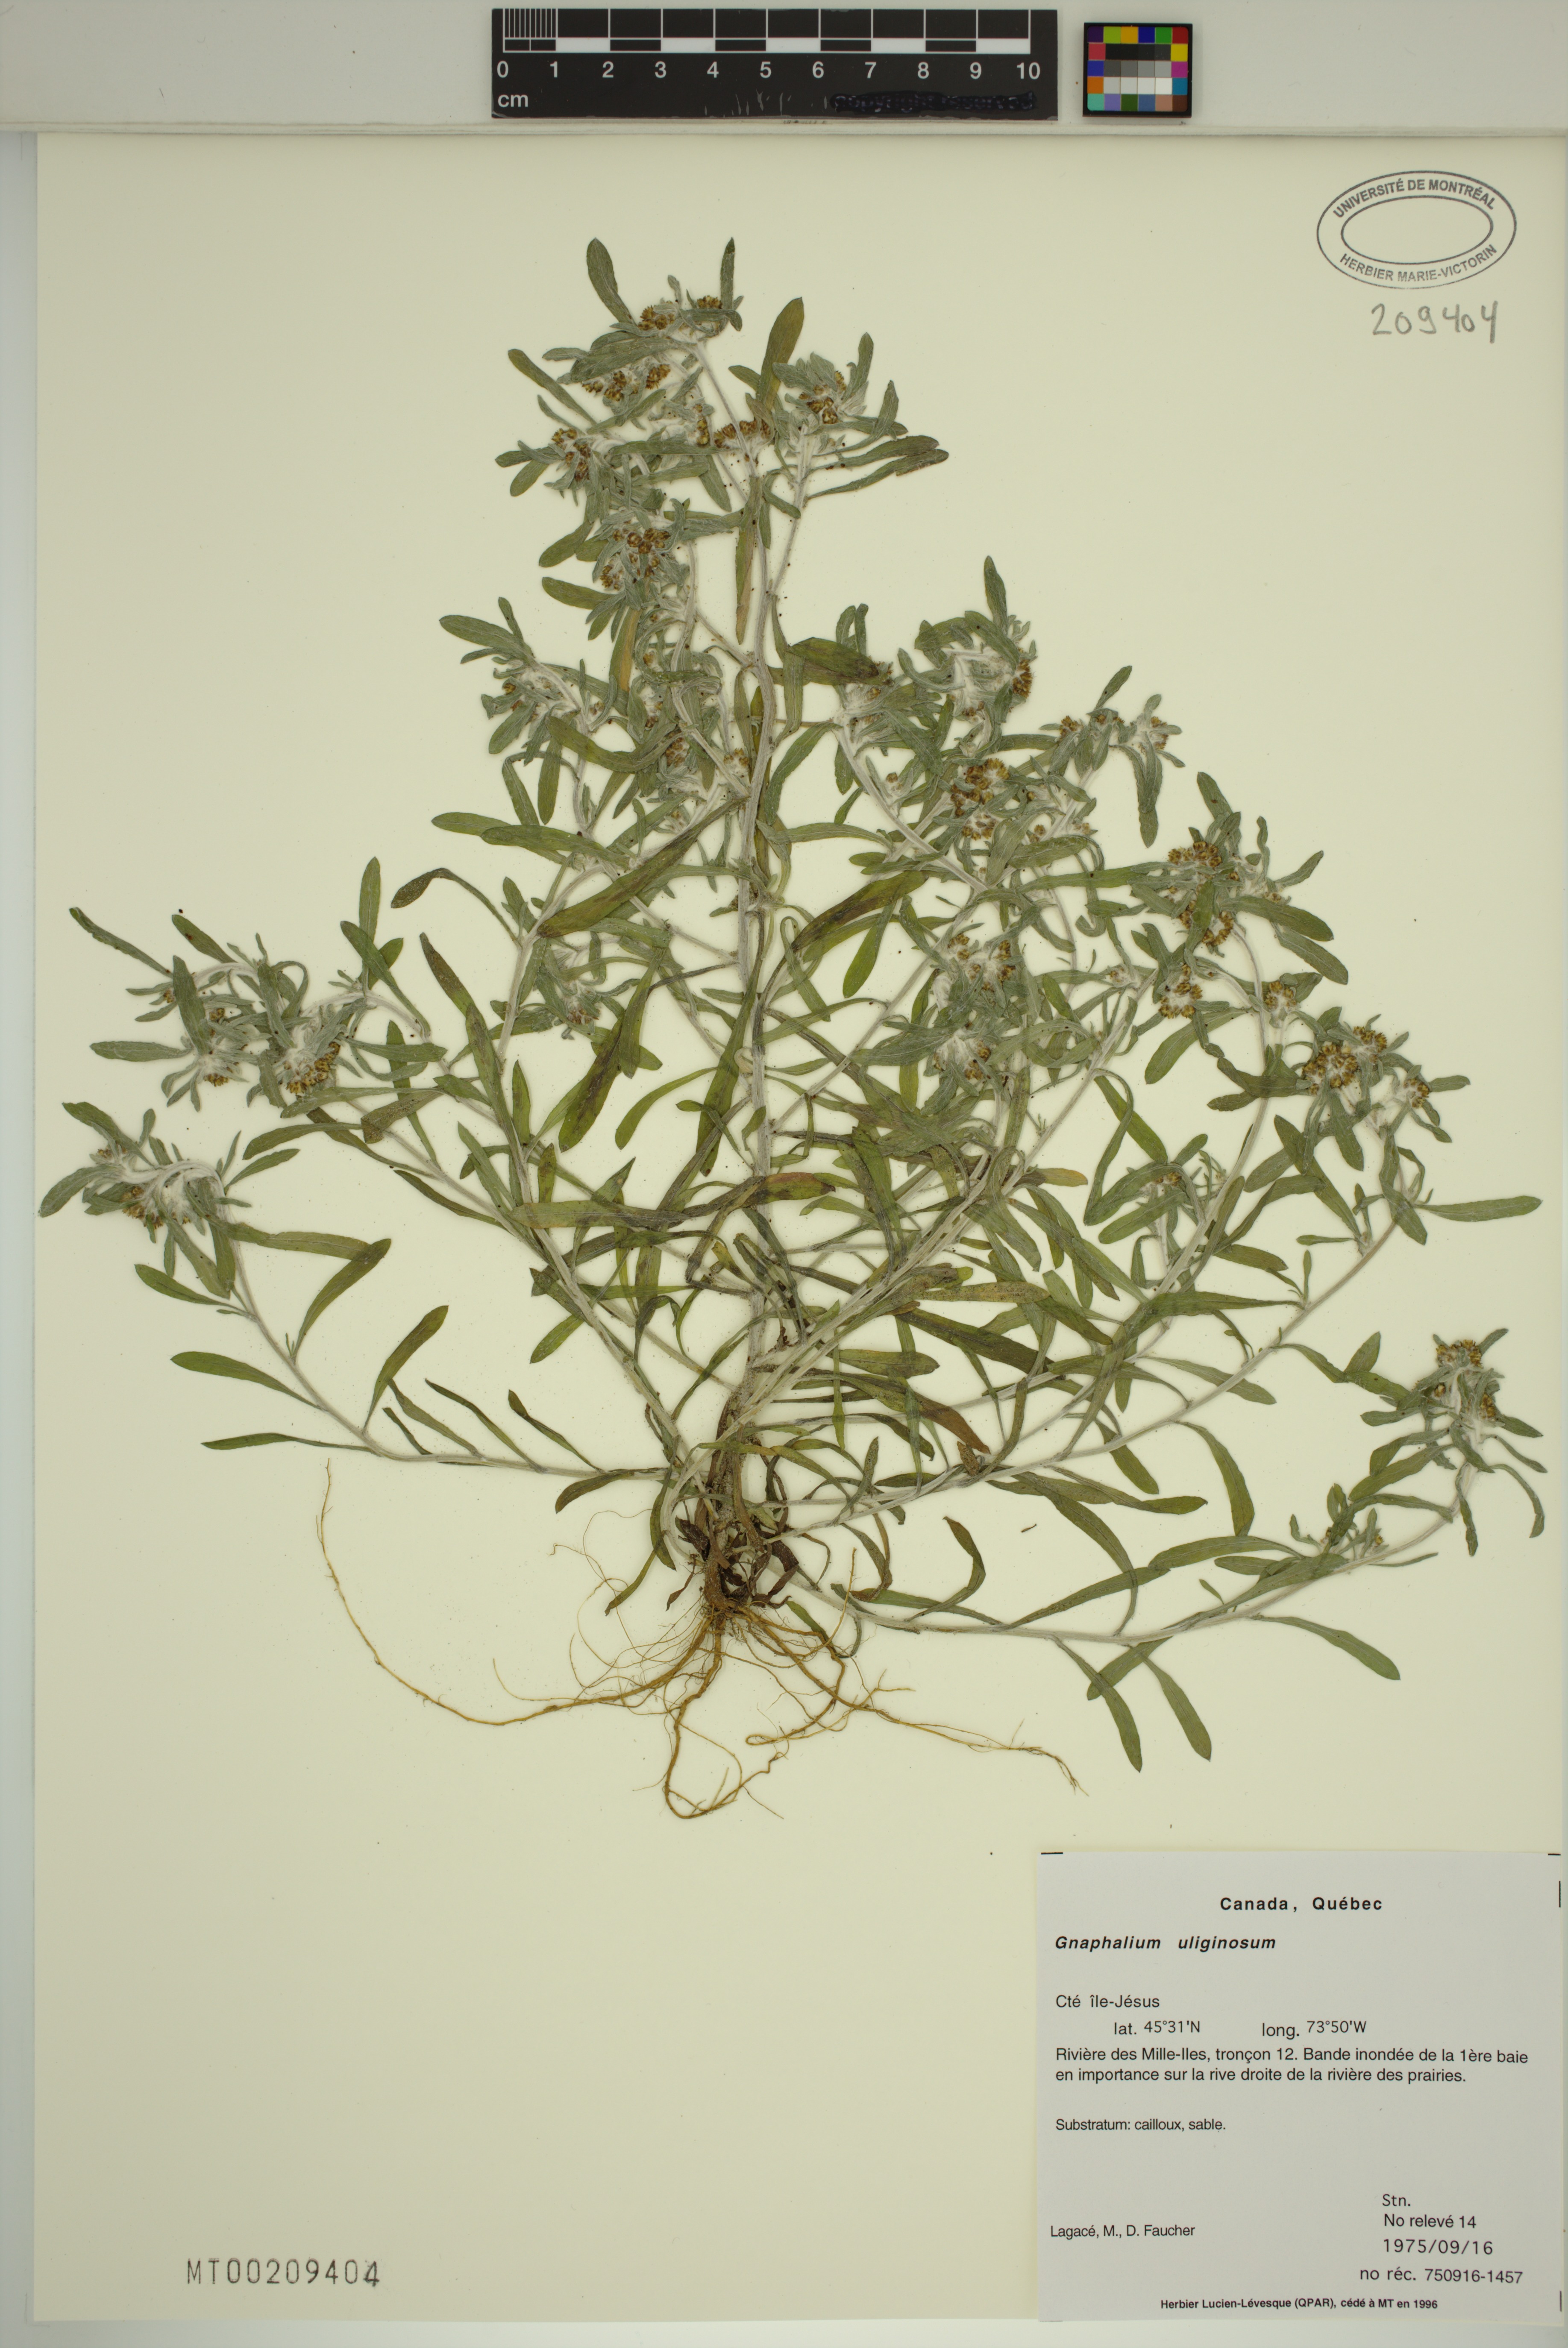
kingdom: Plantae
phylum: Tracheophyta
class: Magnoliopsida
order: Asterales
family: Asteraceae
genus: Gnaphalium
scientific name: Gnaphalium uliginosum
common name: Marsh cudweed
